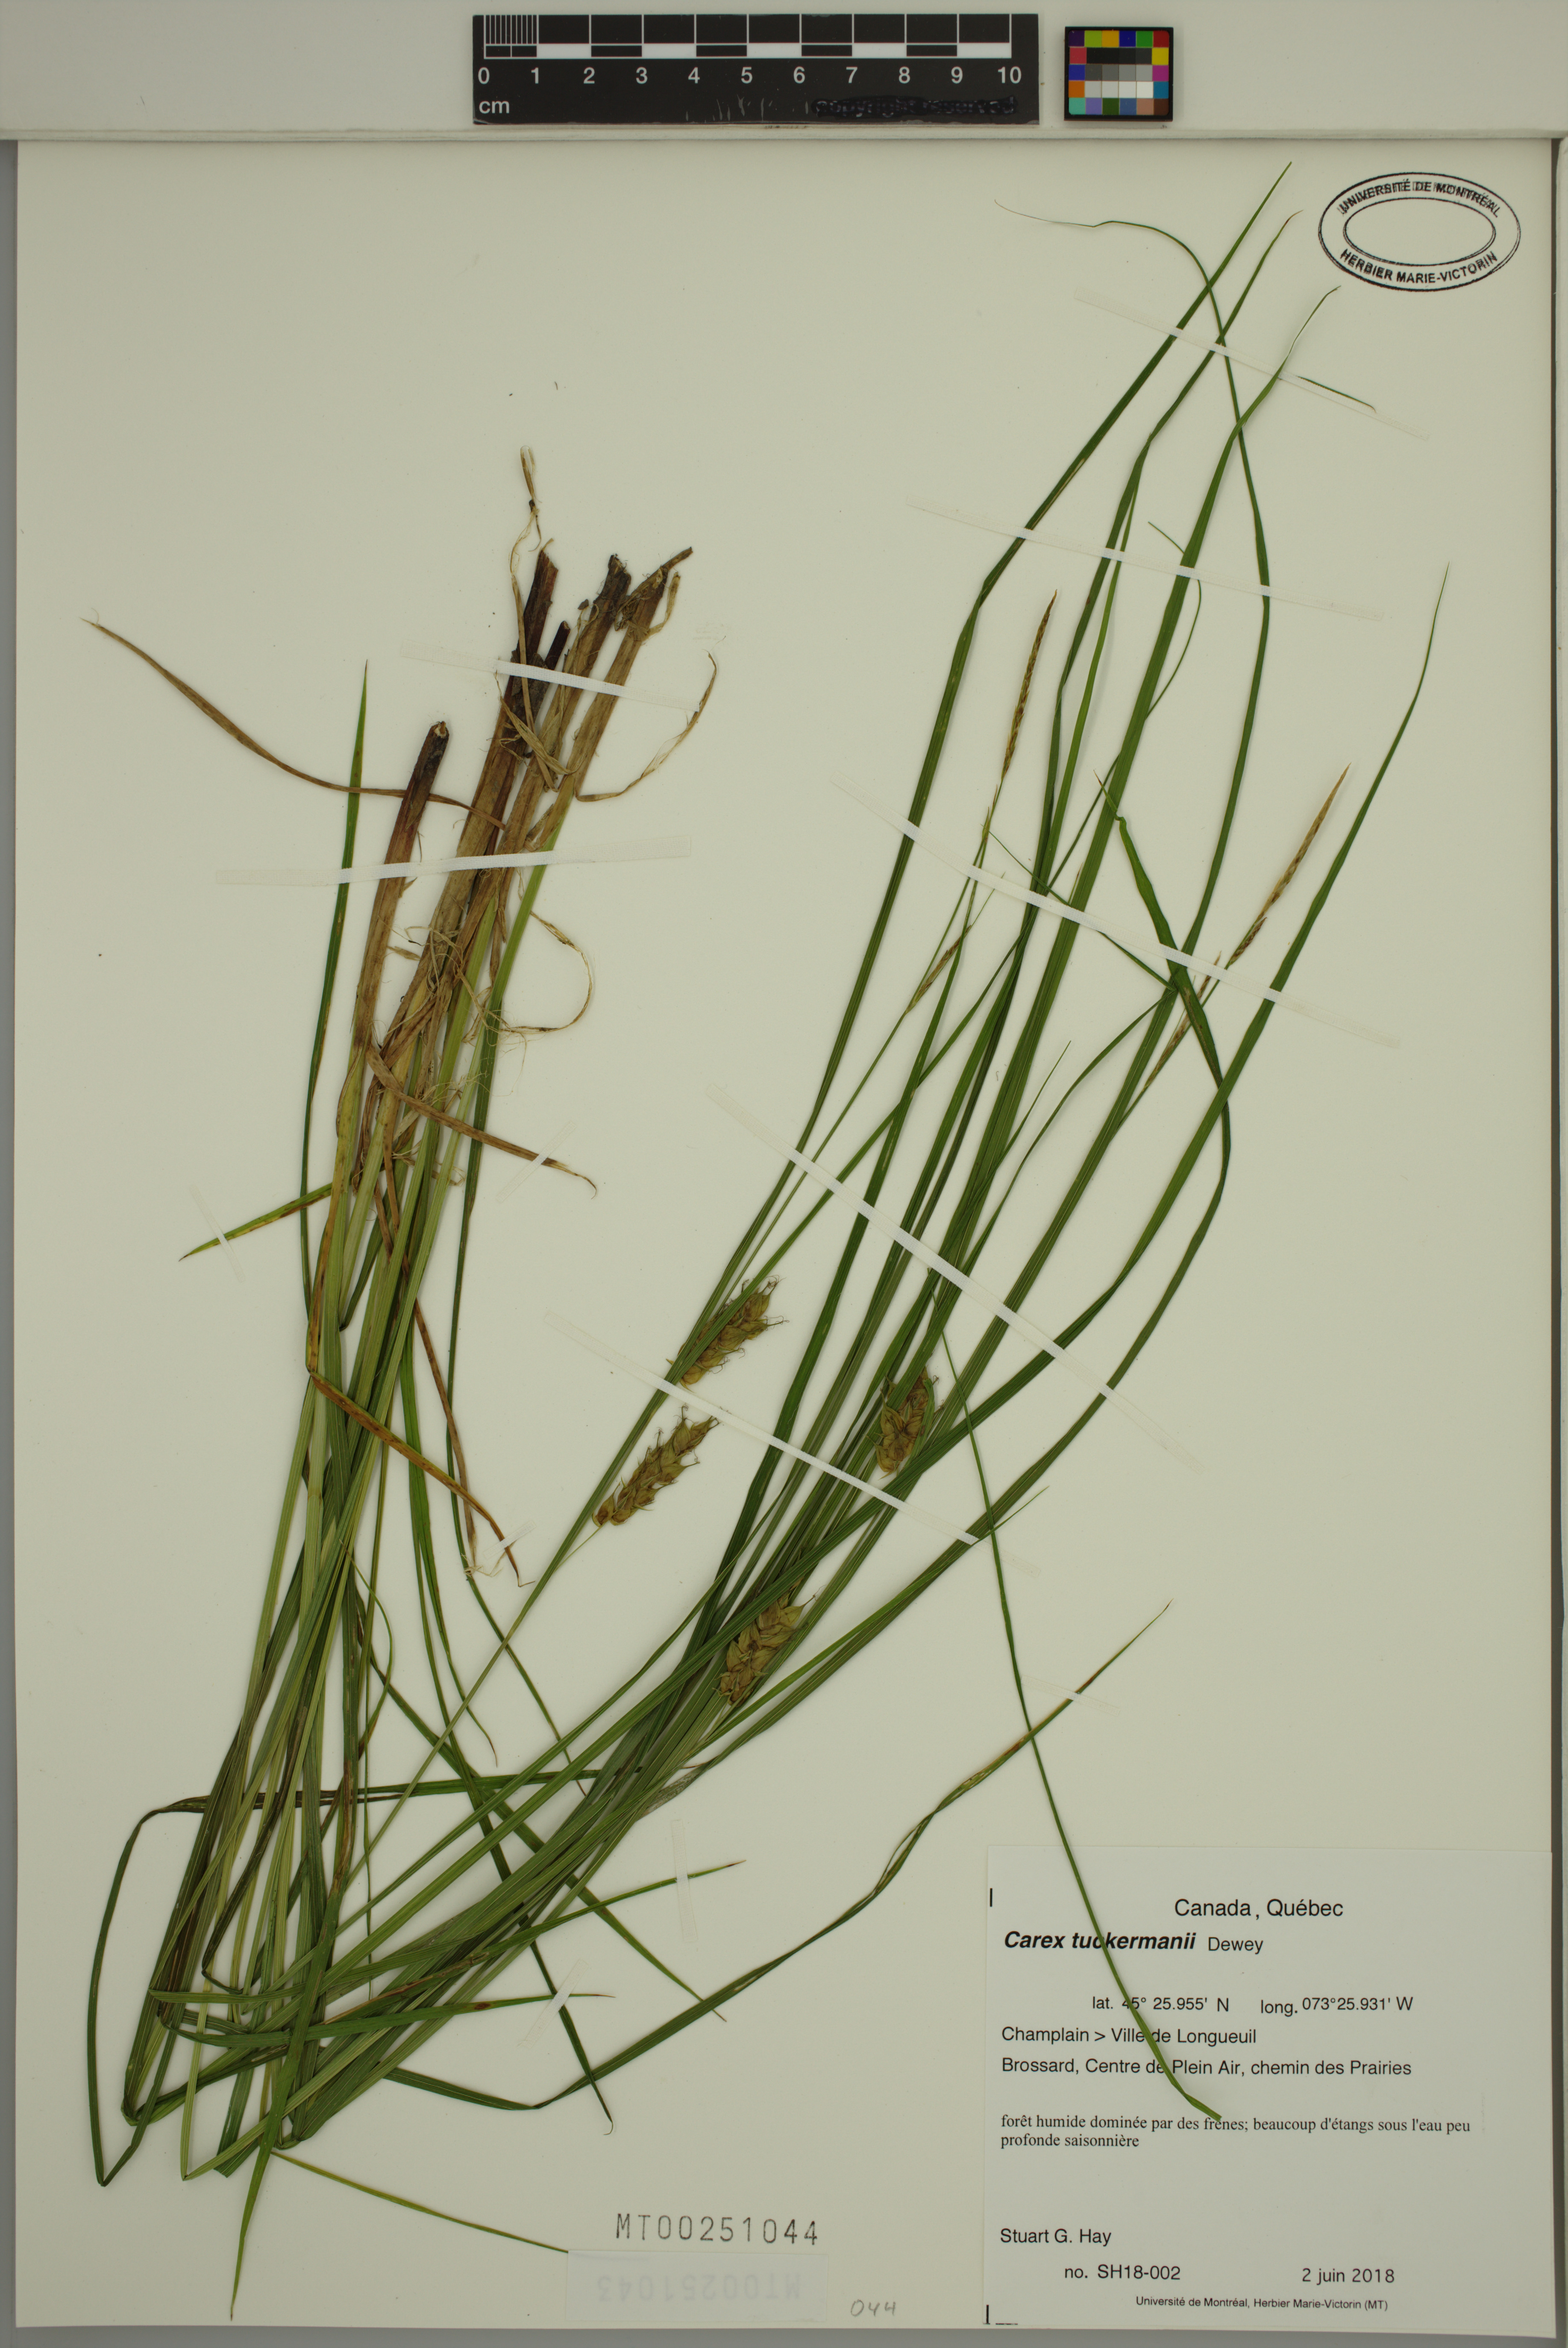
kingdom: Plantae
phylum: Tracheophyta
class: Liliopsida
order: Poales
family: Cyperaceae
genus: Carex
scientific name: Carex tuckermanii
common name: Tuckerman's sedge
